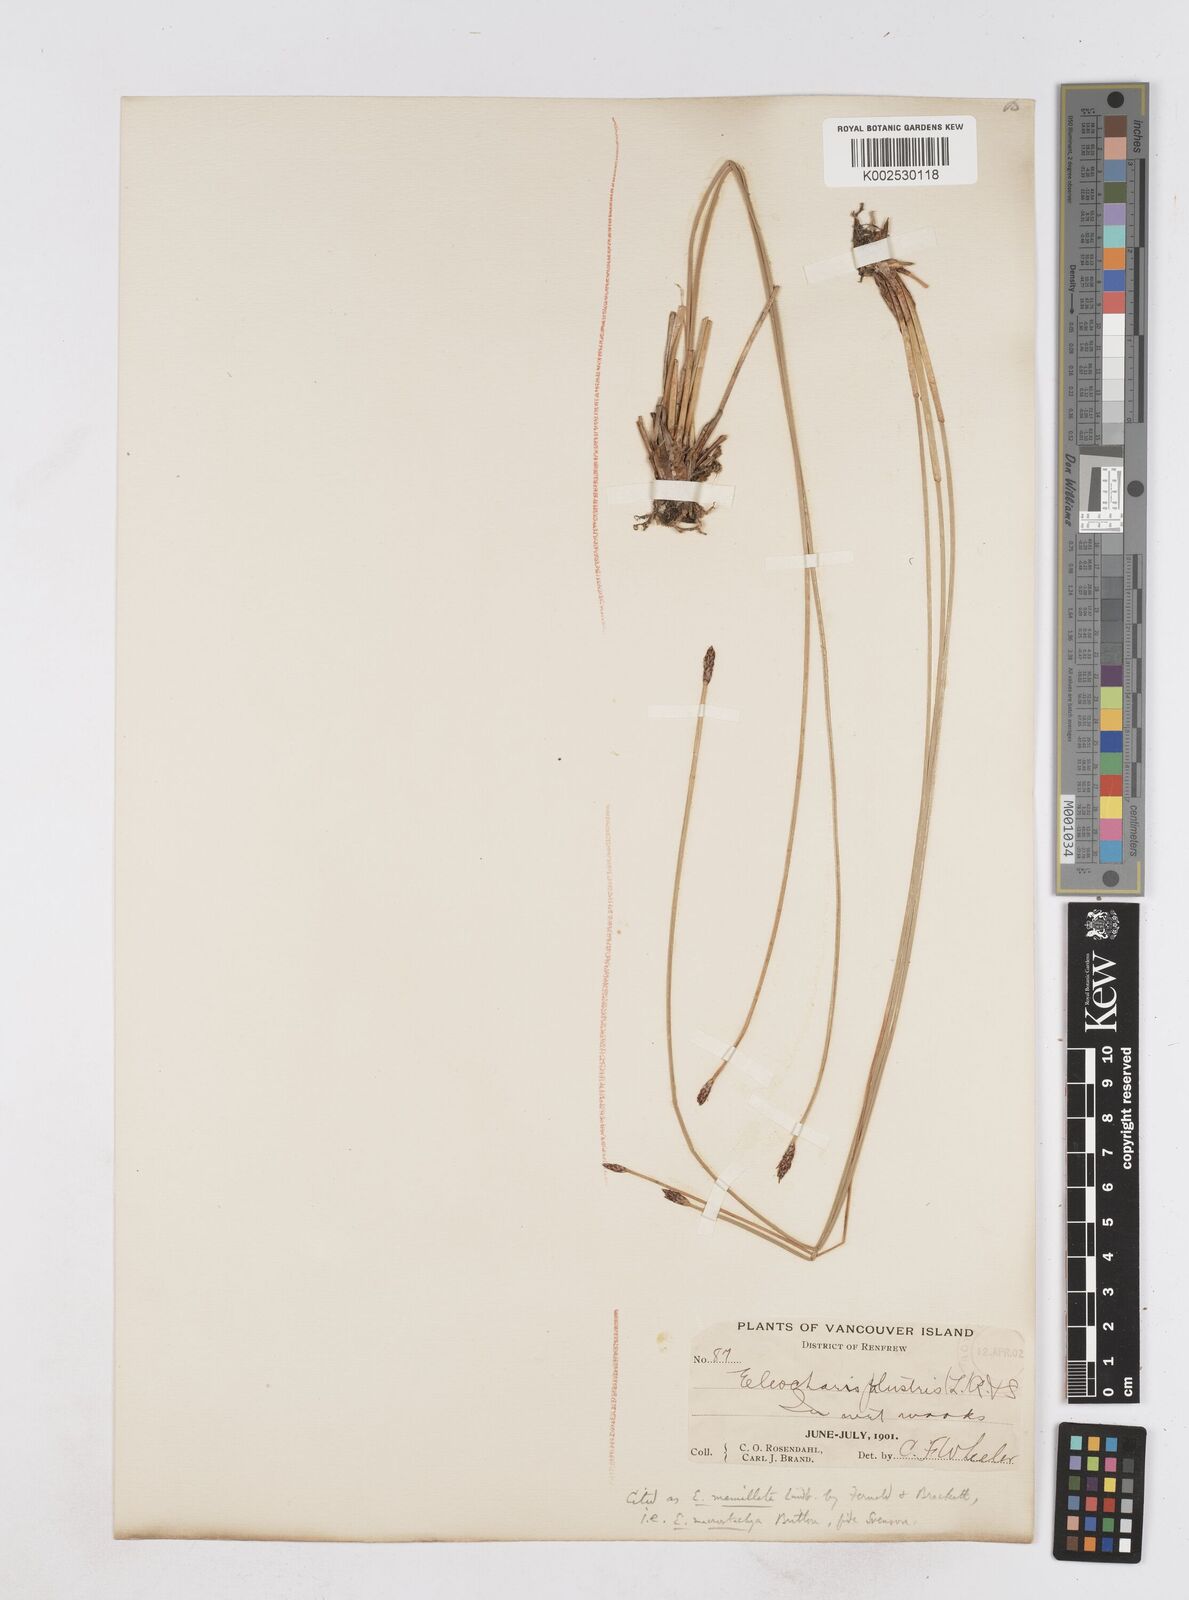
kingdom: Plantae
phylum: Tracheophyta
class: Liliopsida
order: Poales
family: Cyperaceae
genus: Eleocharis
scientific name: Eleocharis macrostachya
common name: Pale spikerush
